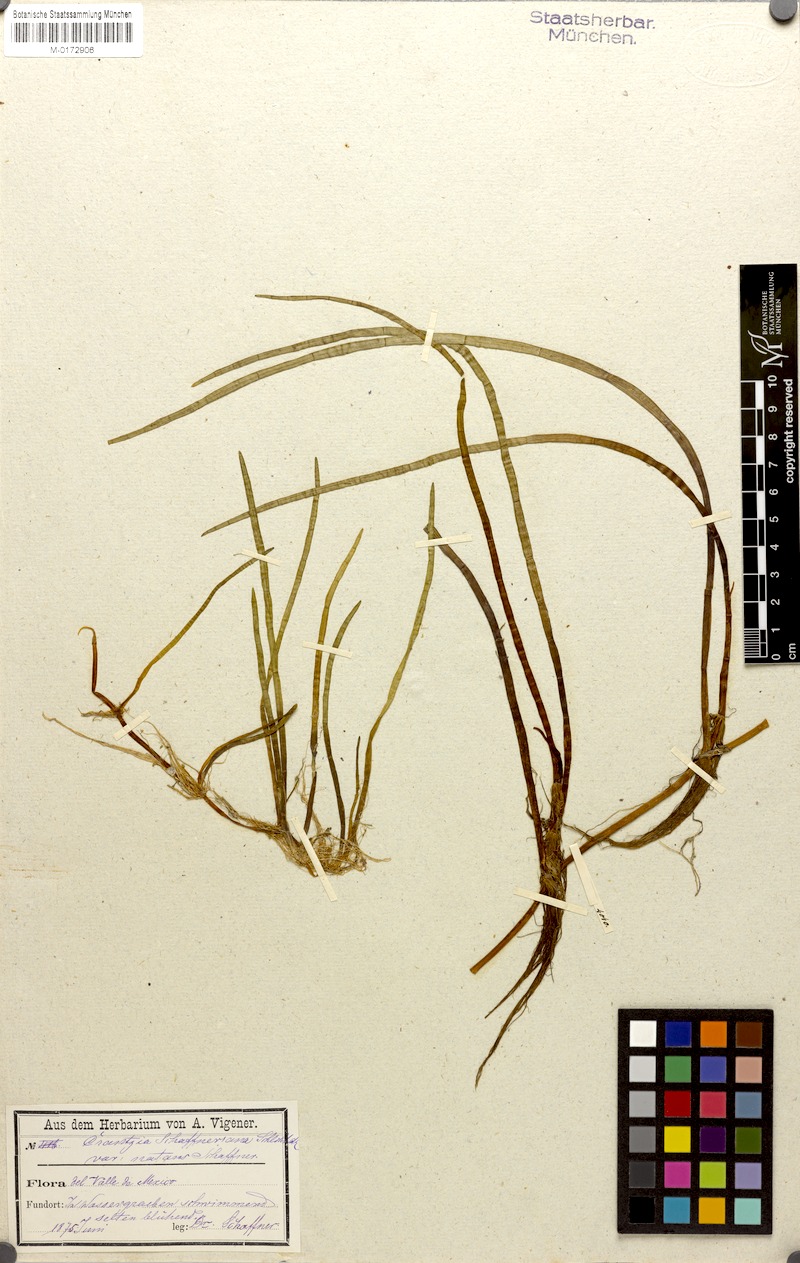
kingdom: Plantae
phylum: Tracheophyta
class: Magnoliopsida
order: Apiales
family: Apiaceae
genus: Lilaeopsis
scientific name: Lilaeopsis schaffneriana
